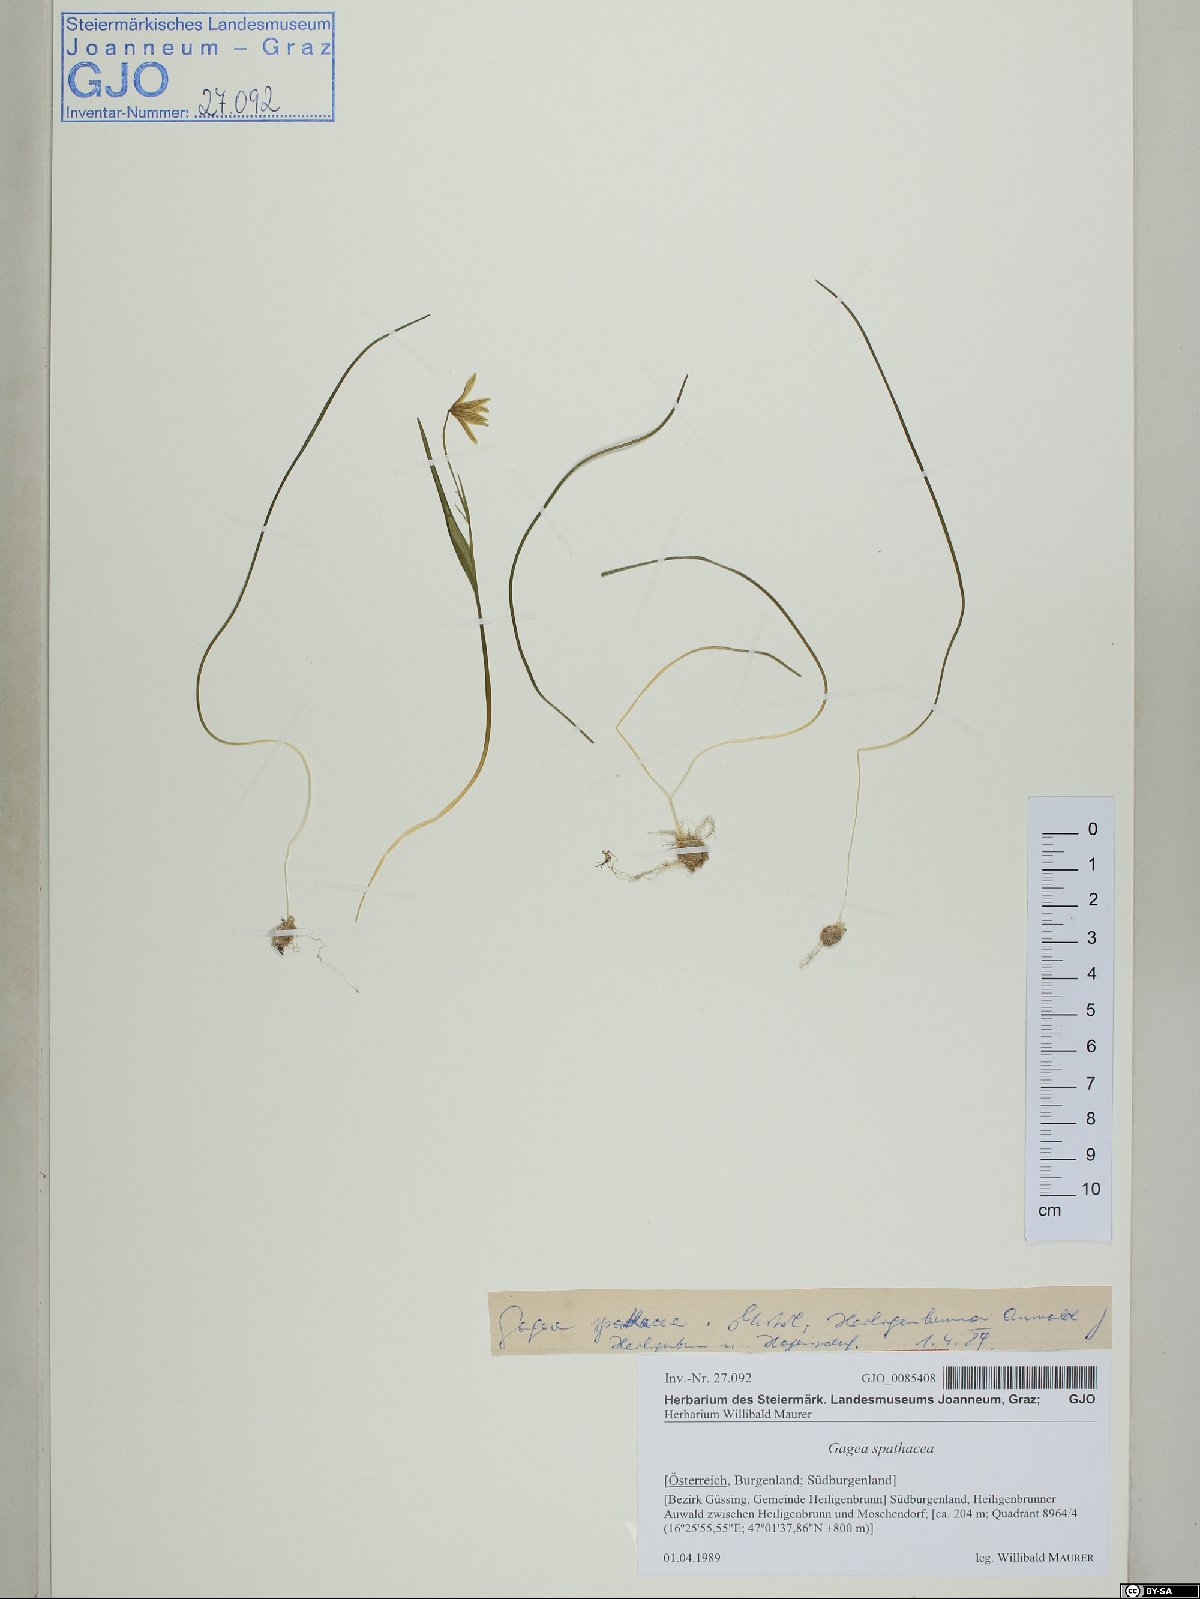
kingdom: Plantae
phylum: Tracheophyta
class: Liliopsida
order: Liliales
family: Liliaceae
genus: Gagea
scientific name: Gagea spathacea
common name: Belgian gagea
